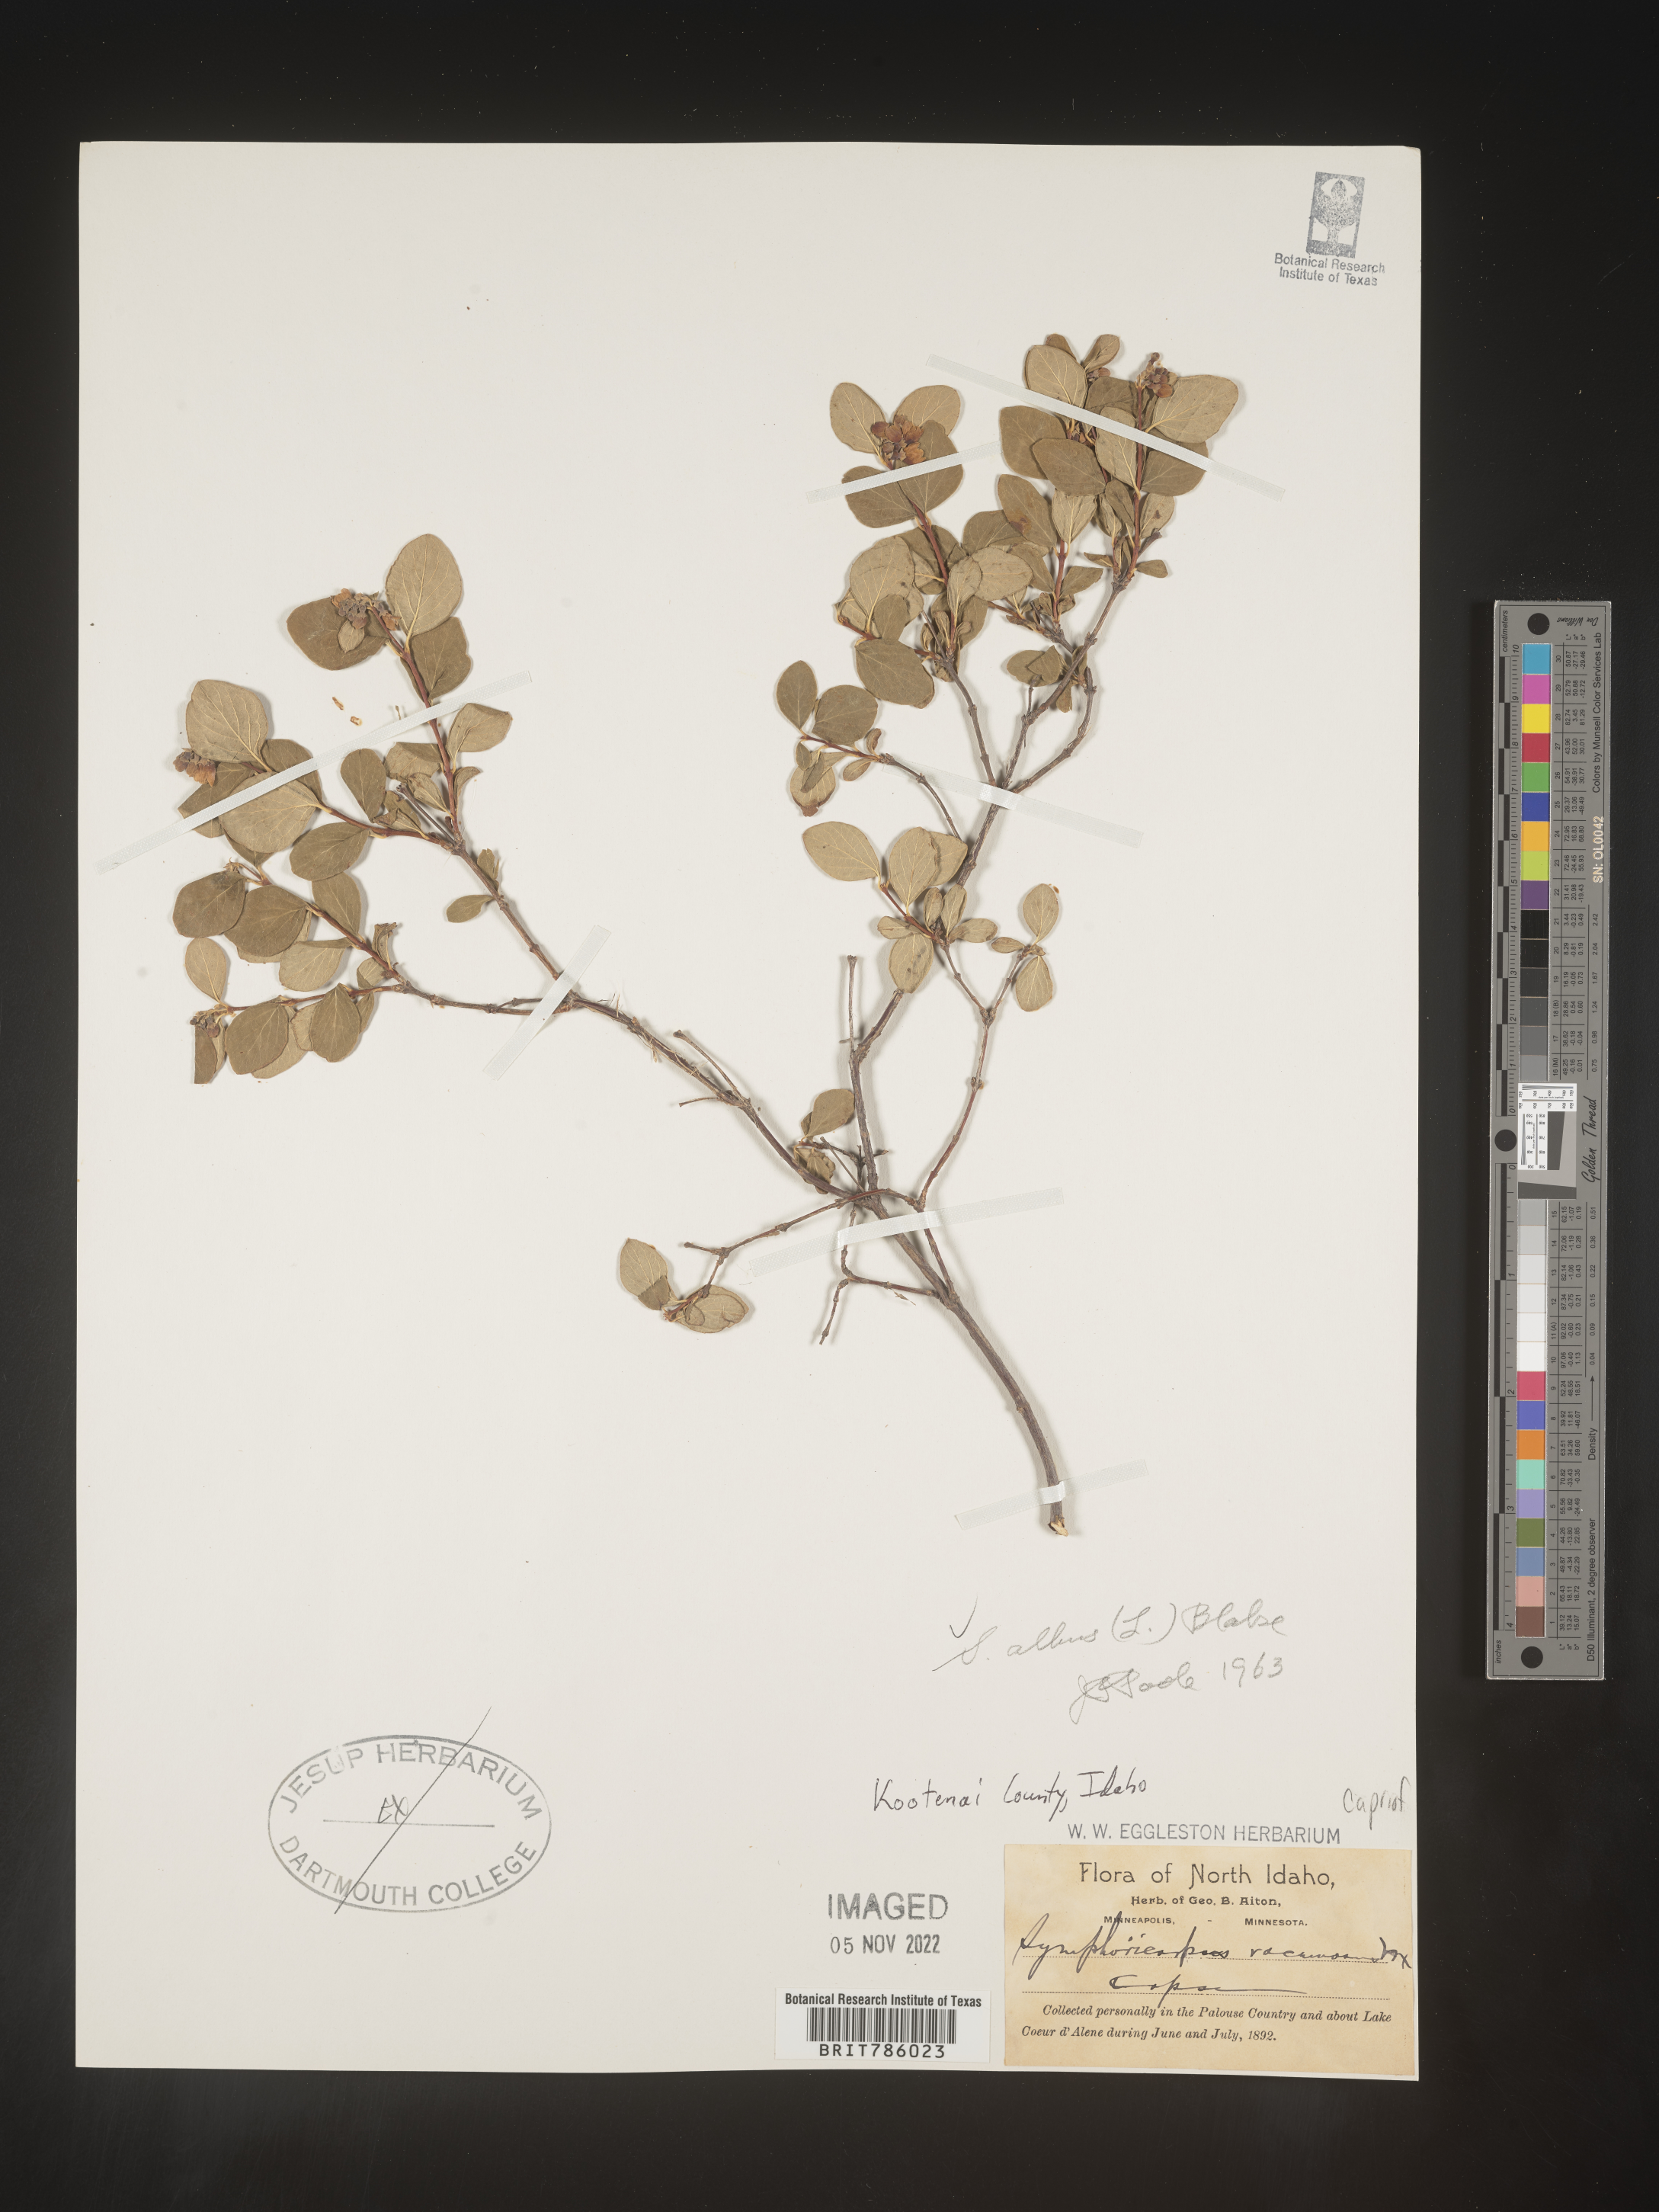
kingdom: Plantae
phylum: Tracheophyta
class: Magnoliopsida
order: Dipsacales
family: Caprifoliaceae
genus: Symphoricarpos
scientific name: Symphoricarpos albus
